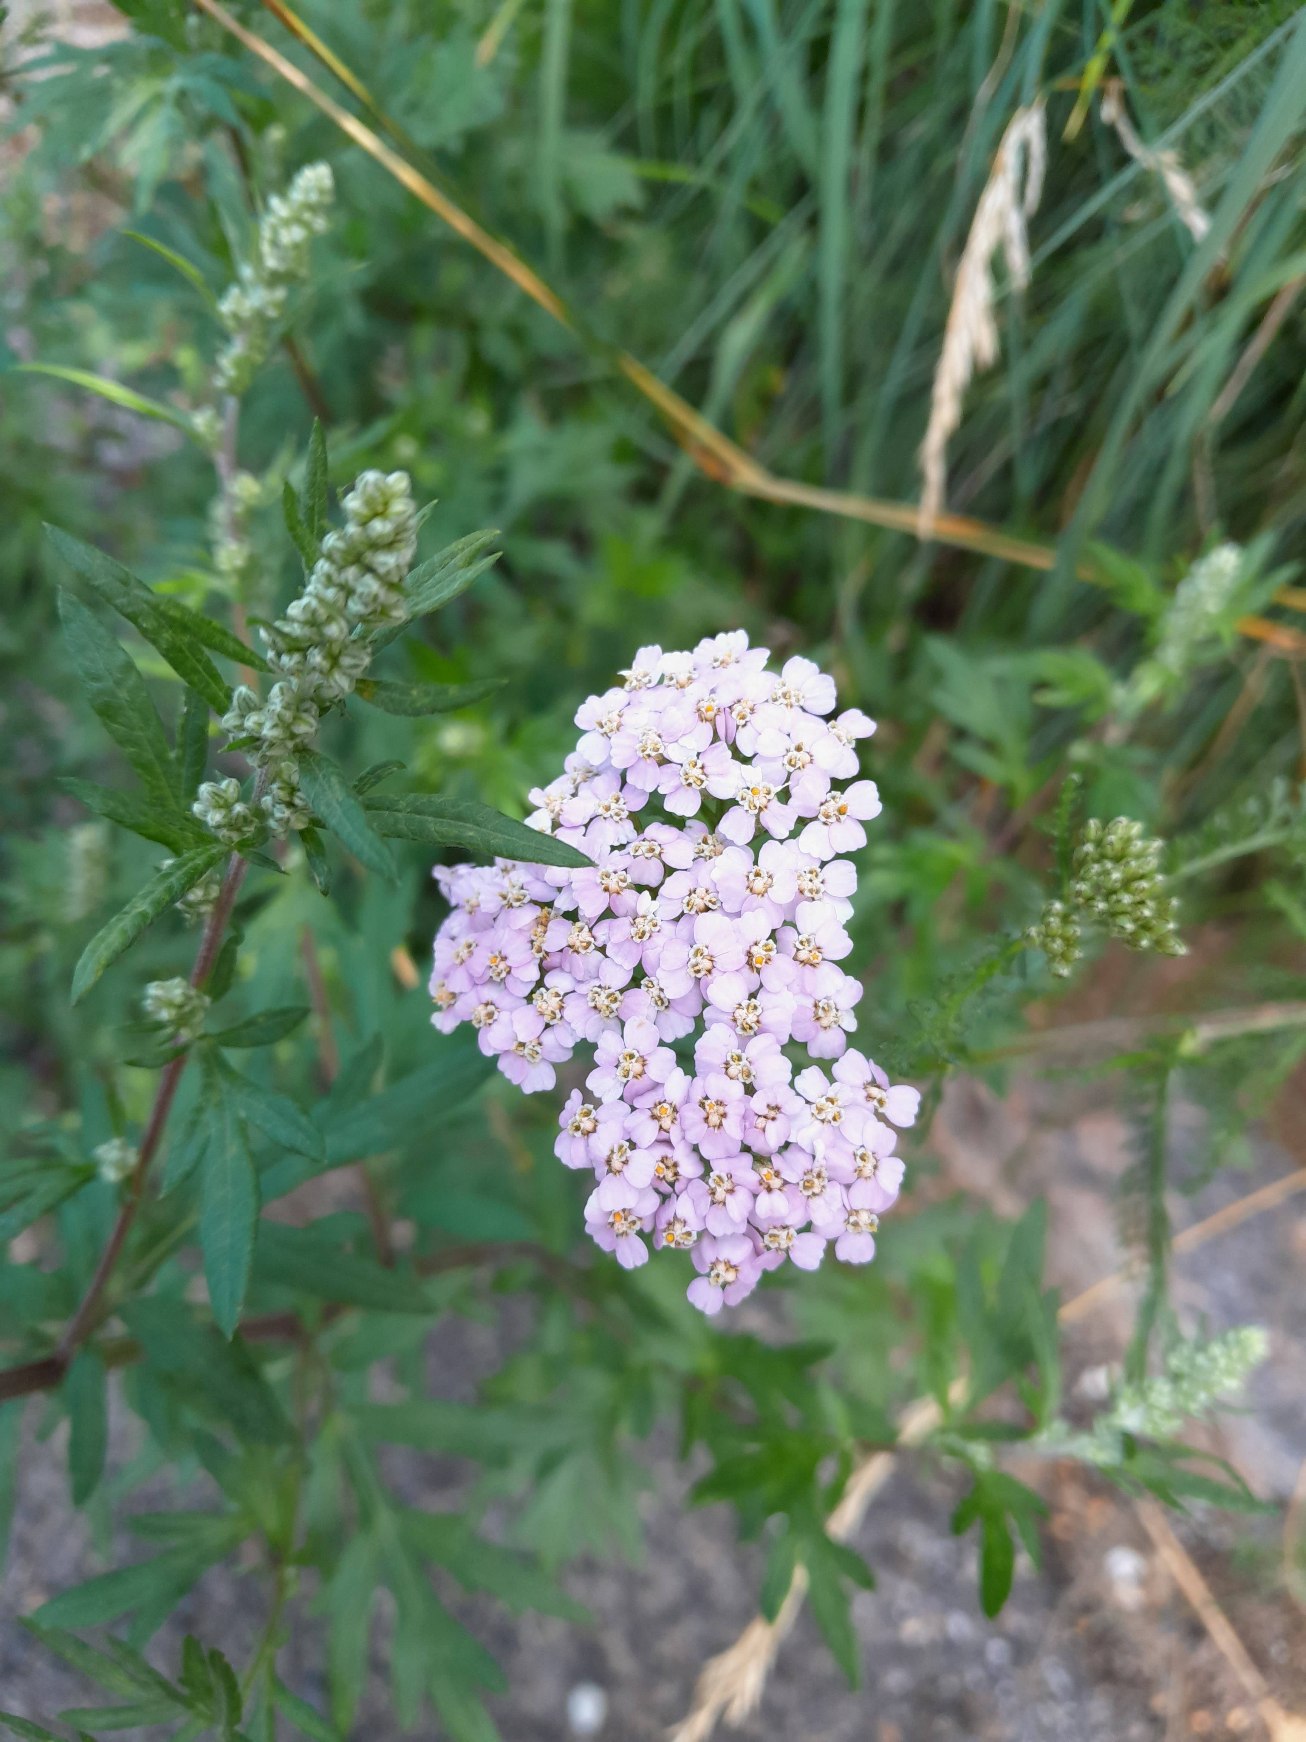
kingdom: Plantae
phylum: Tracheophyta
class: Magnoliopsida
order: Asterales
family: Asteraceae
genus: Achillea
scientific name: Achillea millefolium
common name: Almindelig røllike
